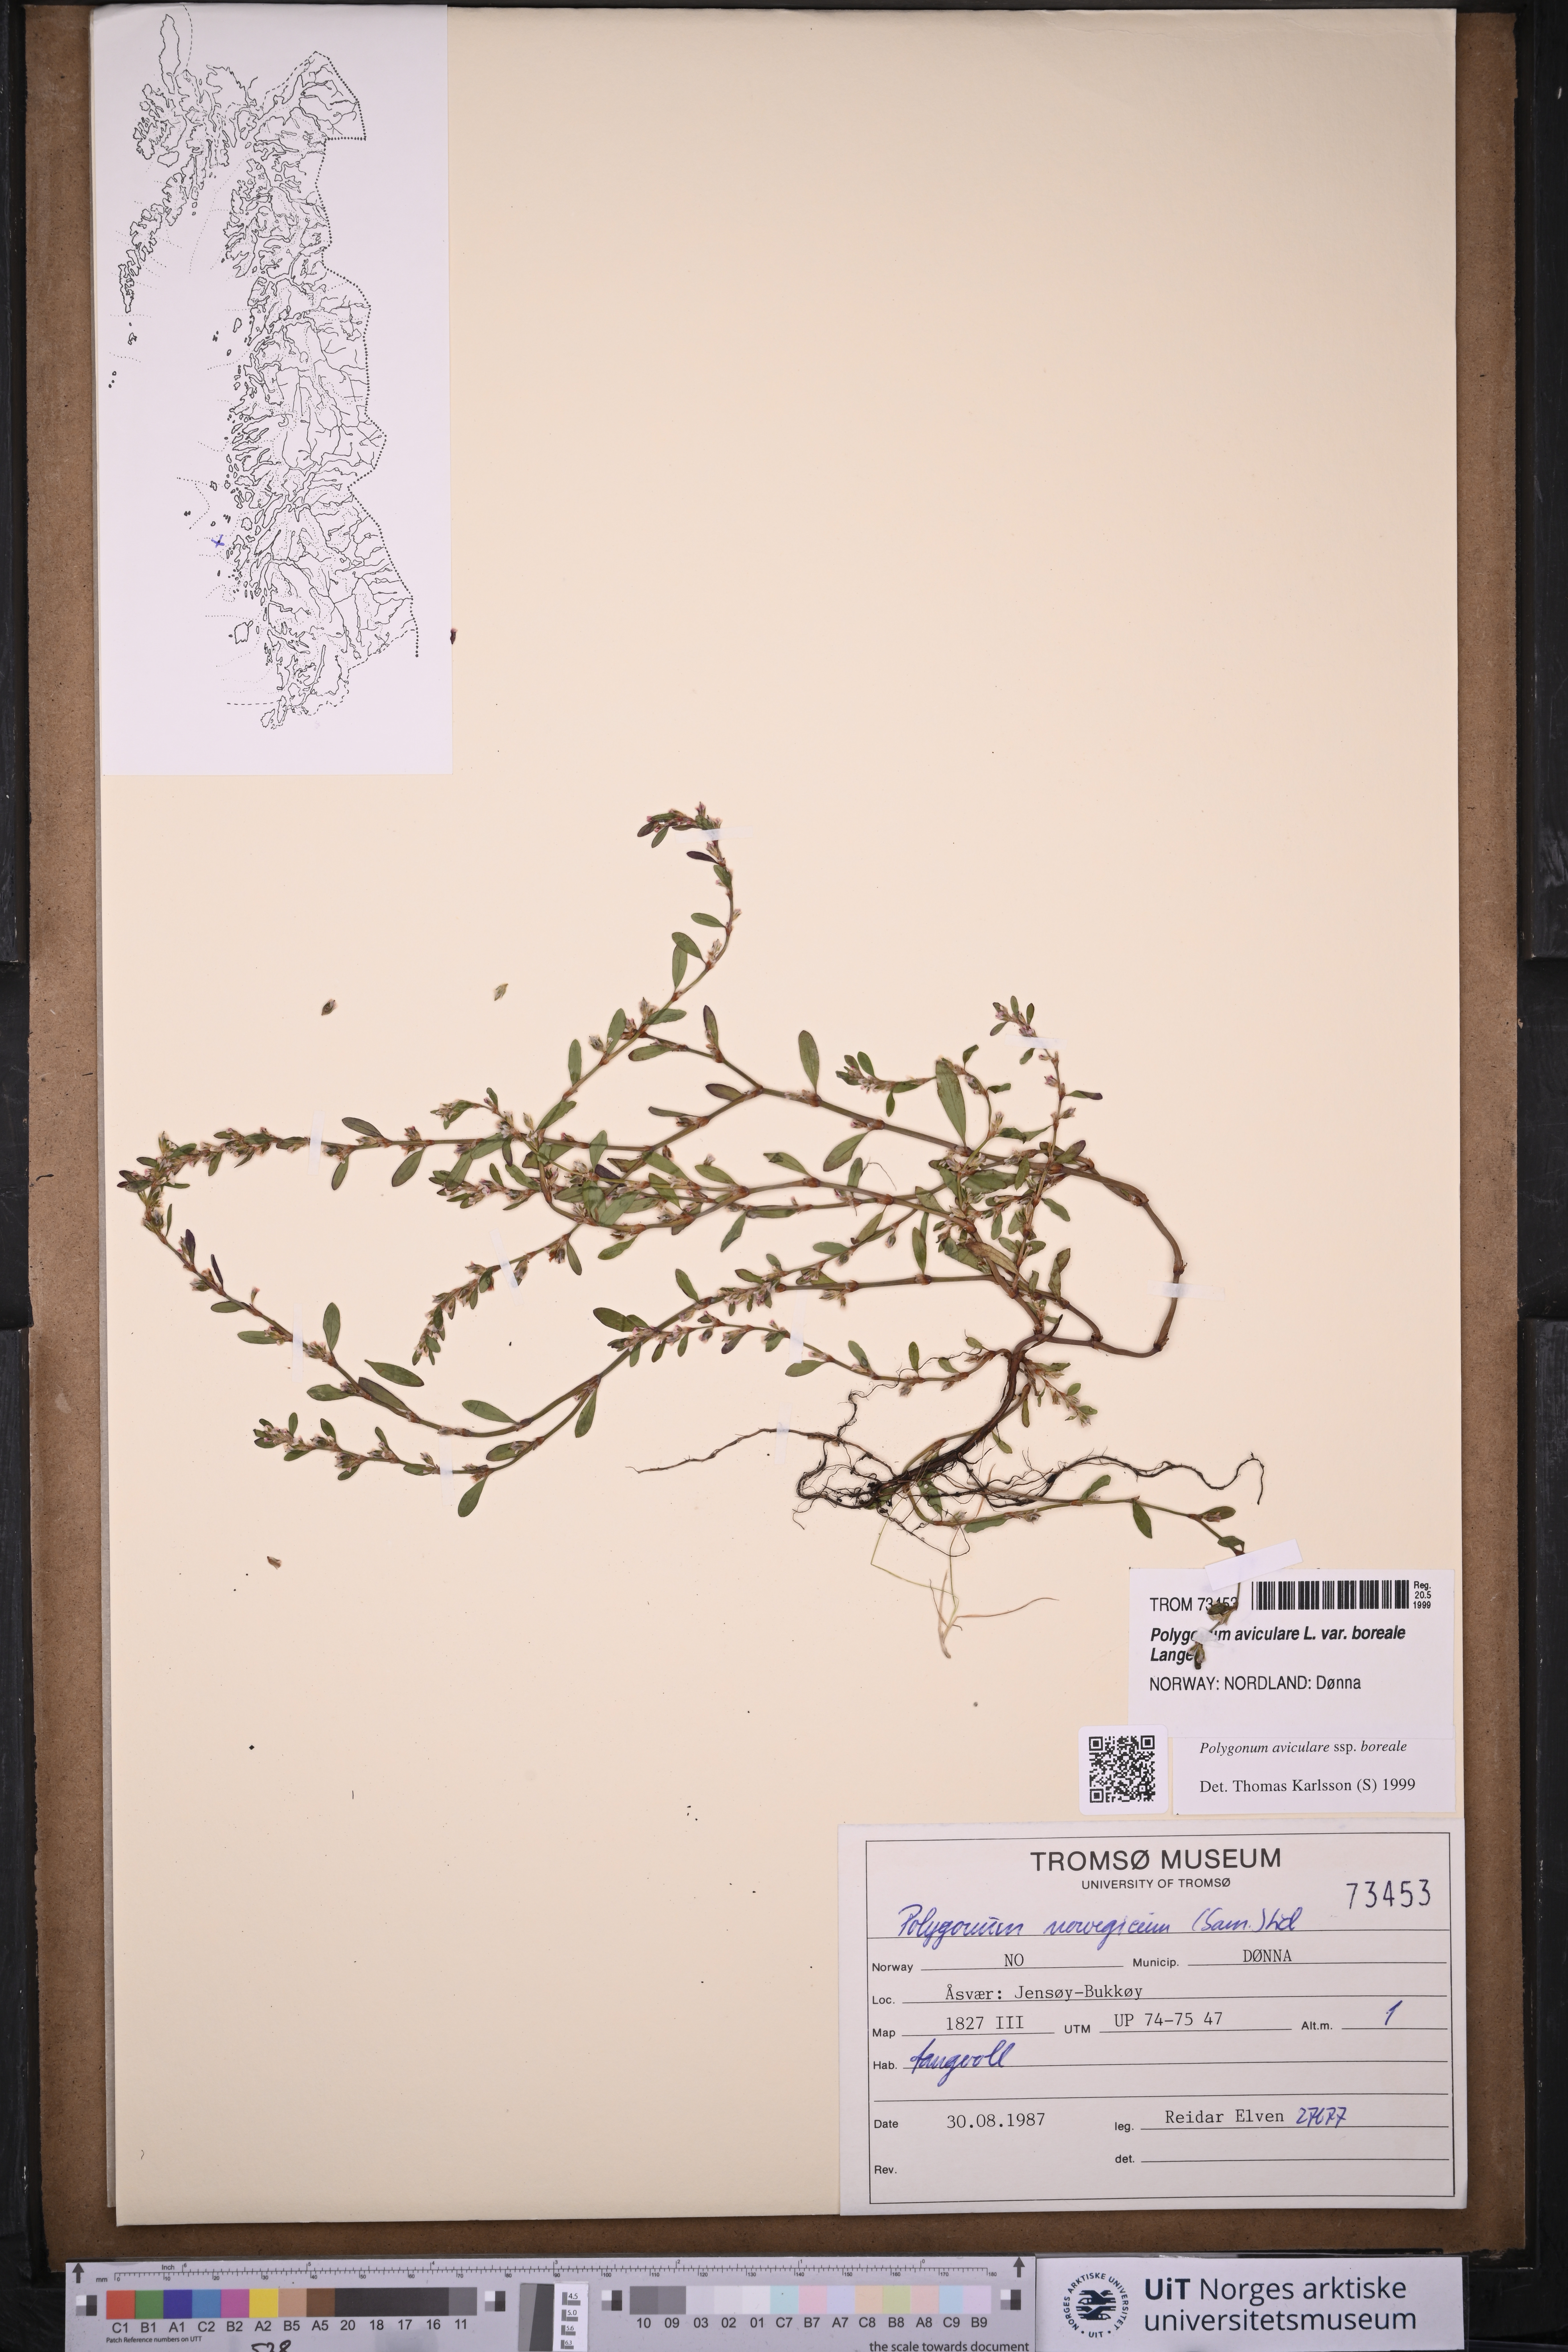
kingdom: Plantae
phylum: Tracheophyta
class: Magnoliopsida
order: Caryophyllales
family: Polygonaceae
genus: Polygonum
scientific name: Polygonum boreale
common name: Northern knotgrass
